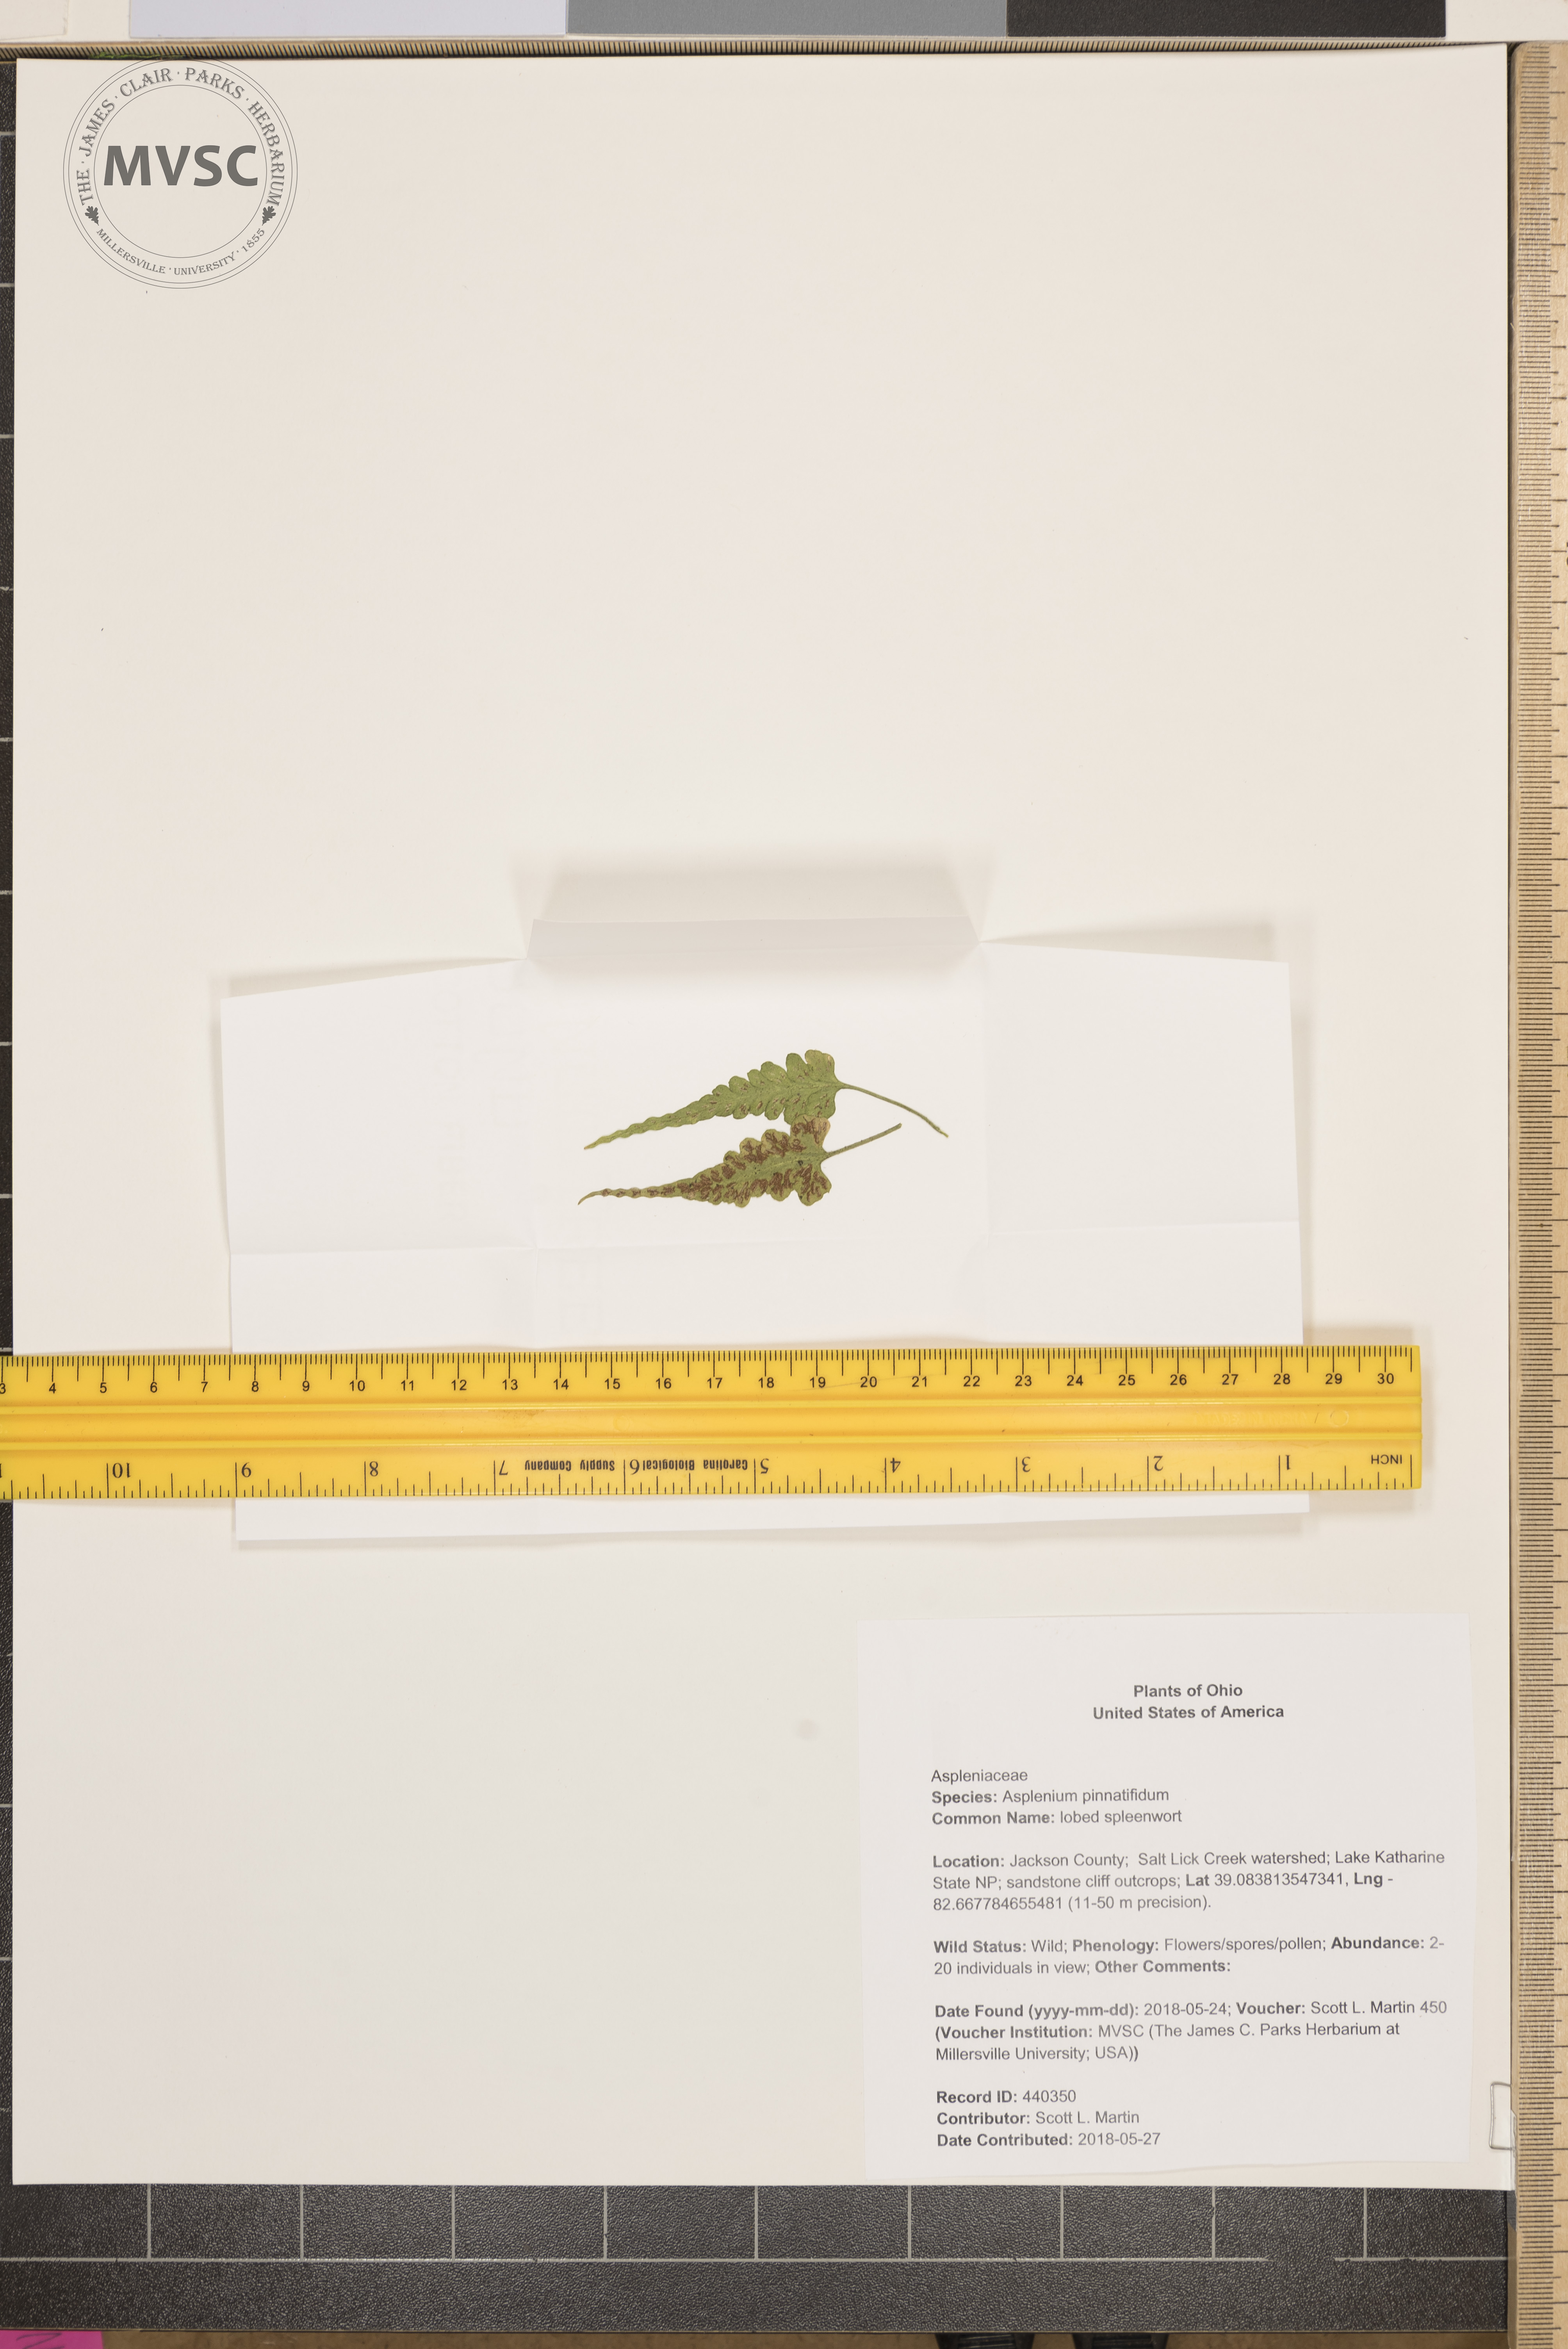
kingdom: Plantae
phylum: Tracheophyta
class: Polypodiopsida
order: Polypodiales
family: Aspleniaceae
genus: Asplenium
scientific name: Asplenium pinnatifidum
